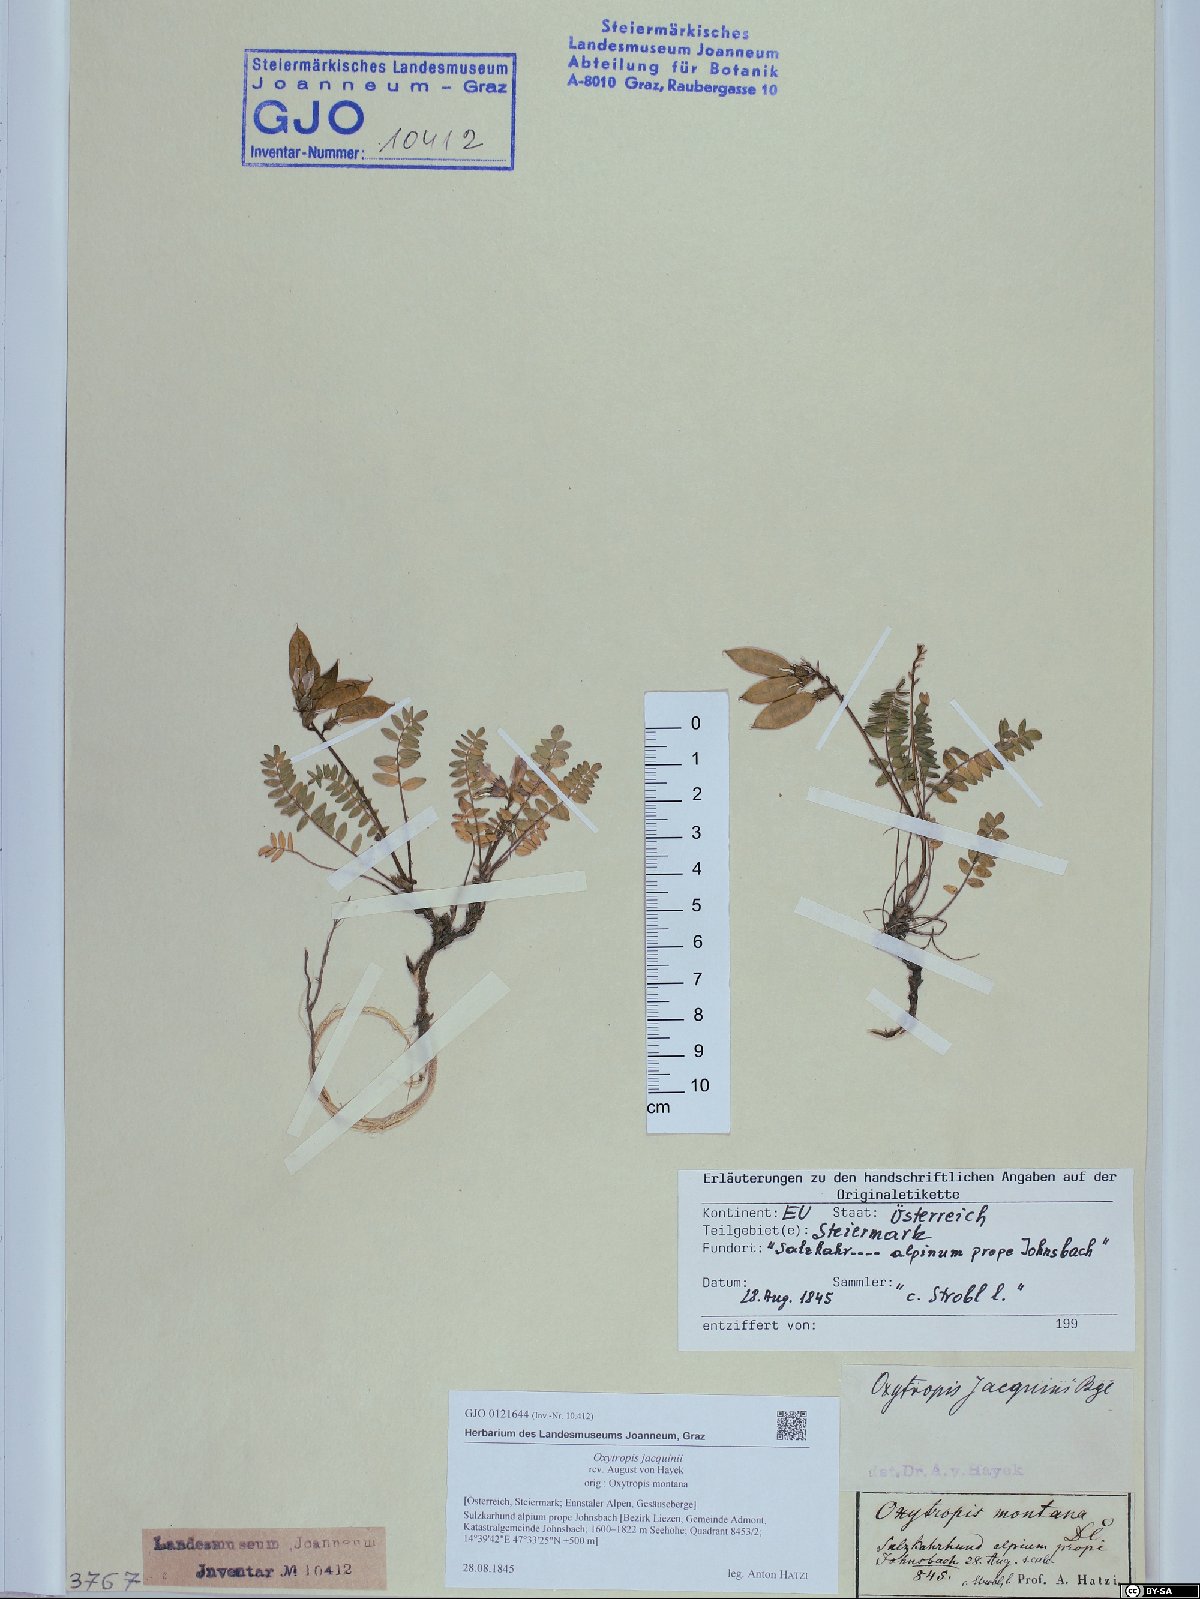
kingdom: Plantae
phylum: Tracheophyta
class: Magnoliopsida
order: Fabales
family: Fabaceae
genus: Oxytropis
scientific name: Oxytropis montana
